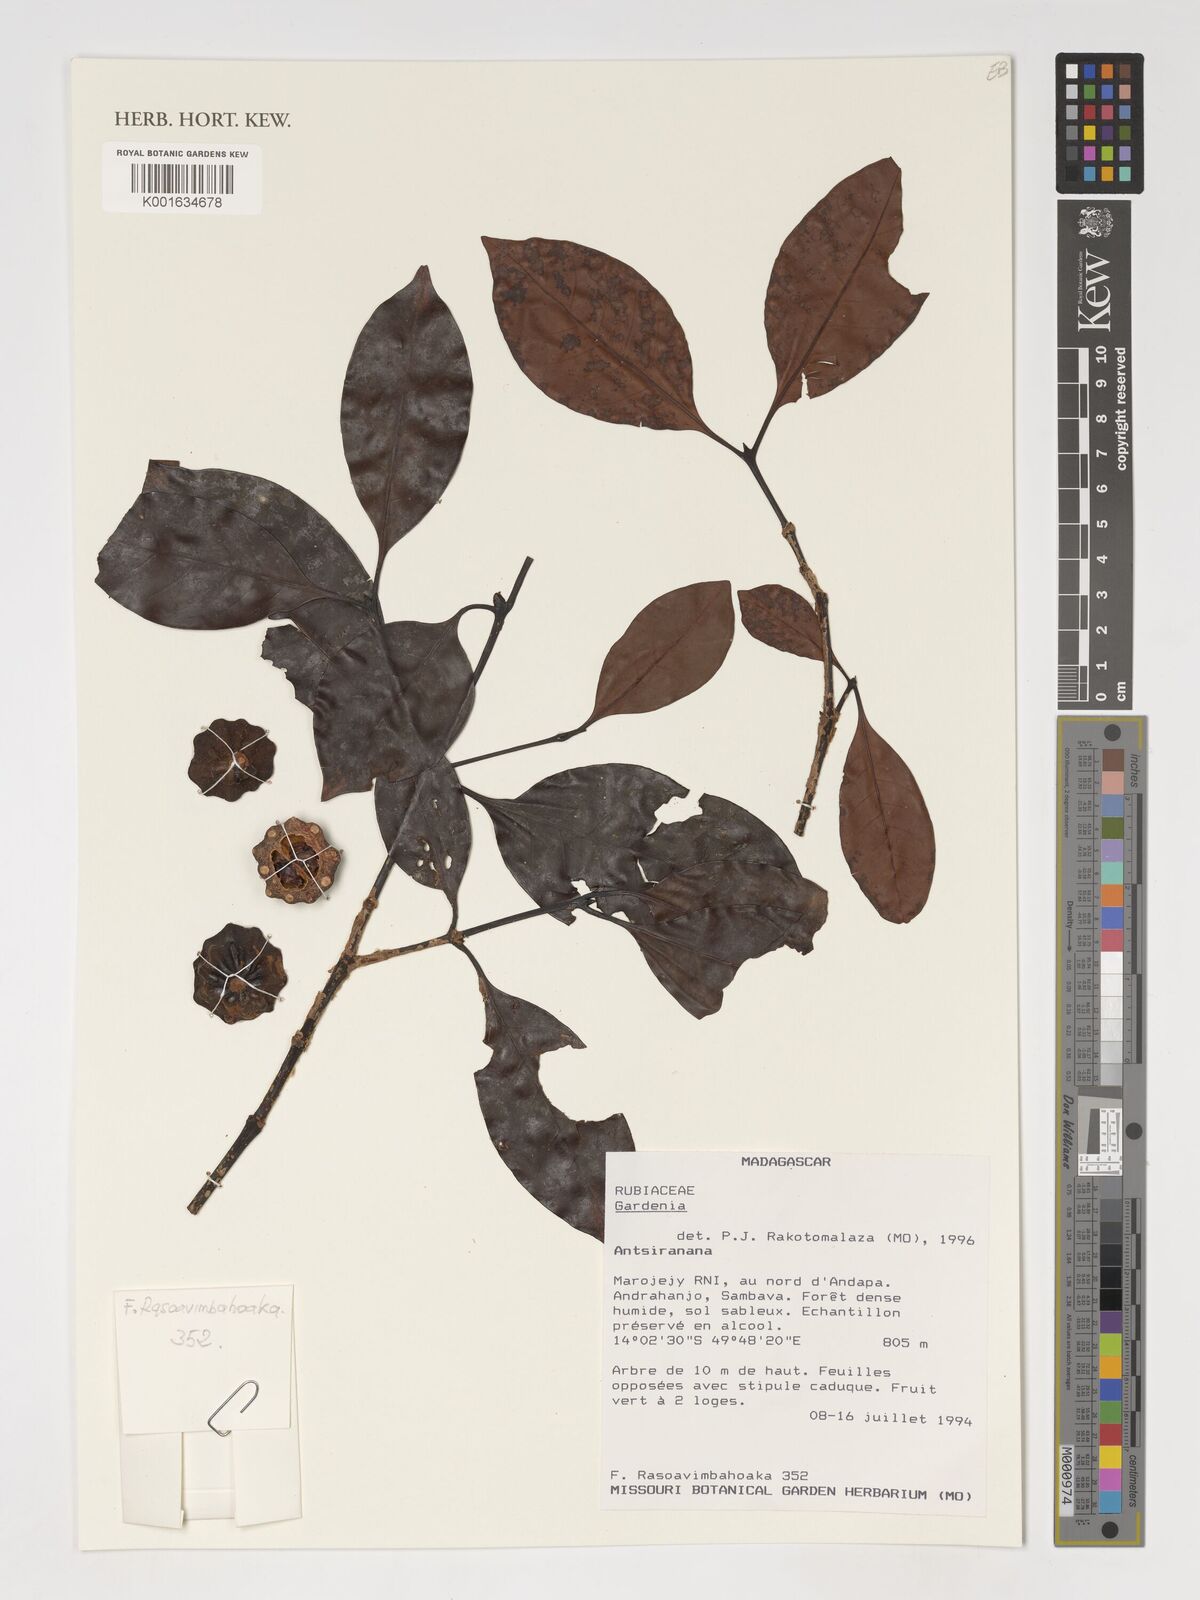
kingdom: Plantae
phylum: Tracheophyta
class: Magnoliopsida
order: Gentianales
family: Rubiaceae
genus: Gardenia
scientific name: Gardenia
